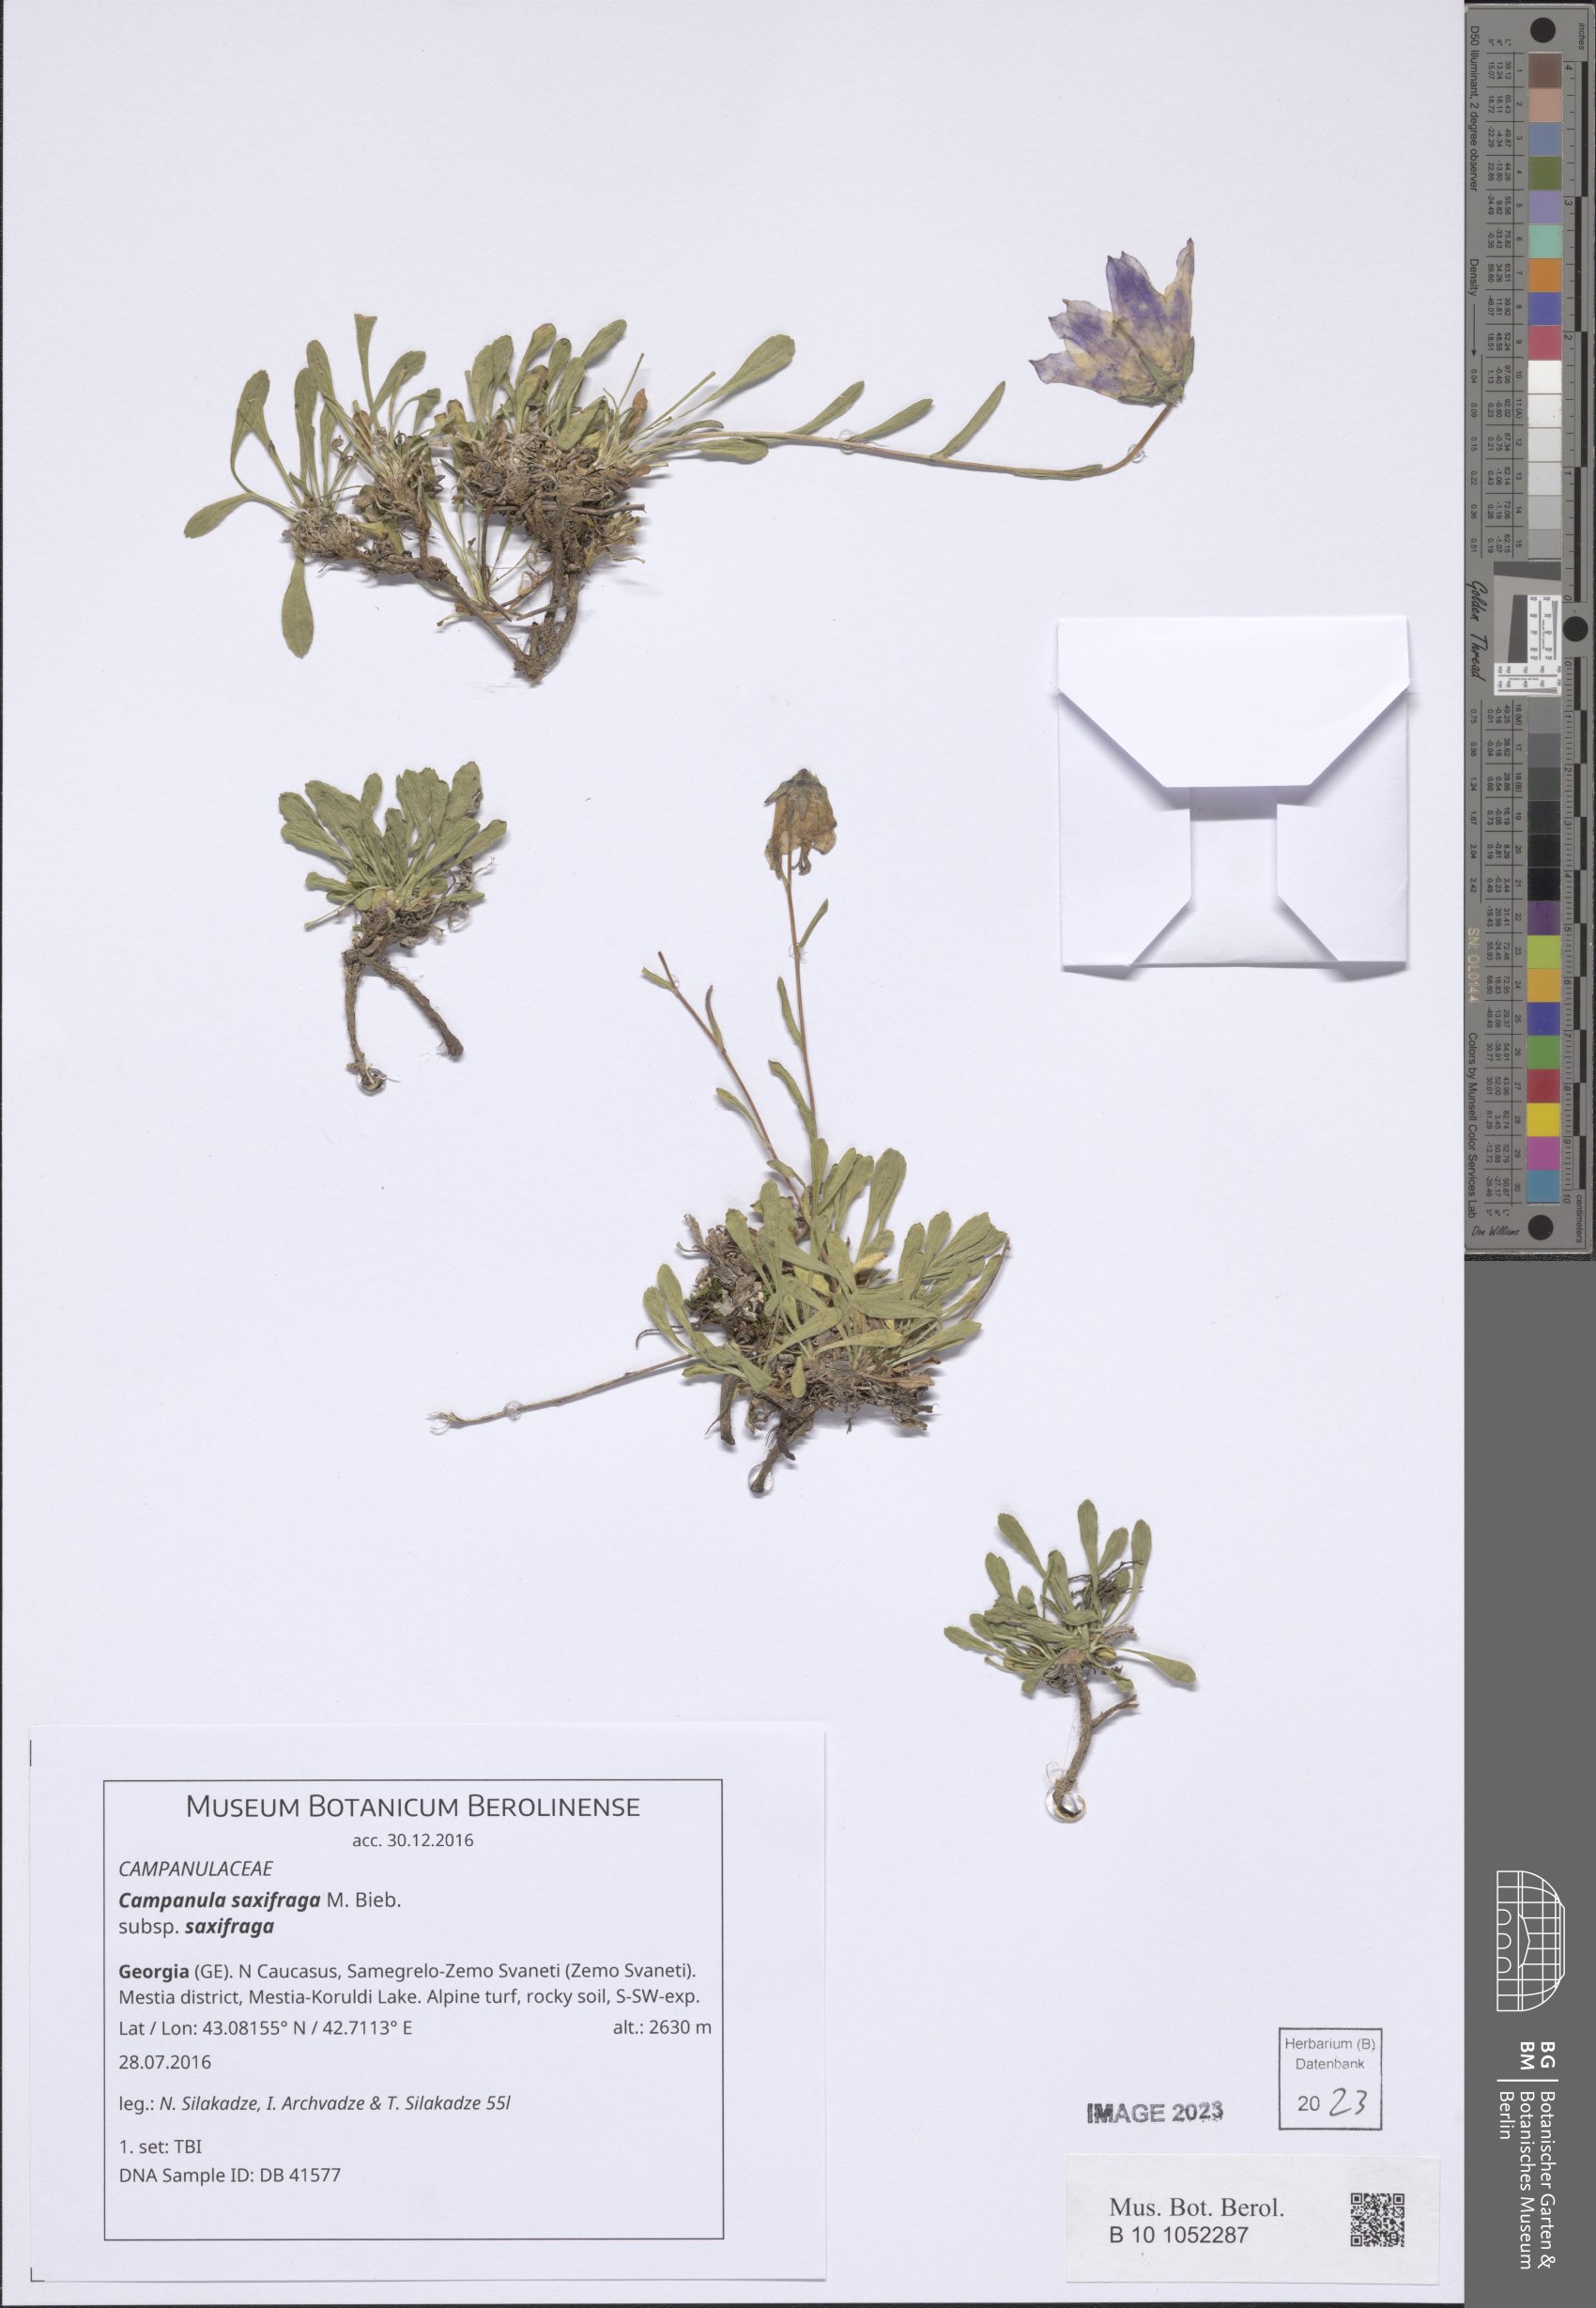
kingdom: Plantae
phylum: Tracheophyta
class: Magnoliopsida
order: Asterales
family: Campanulaceae
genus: Campanula
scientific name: Campanula saxifraga
